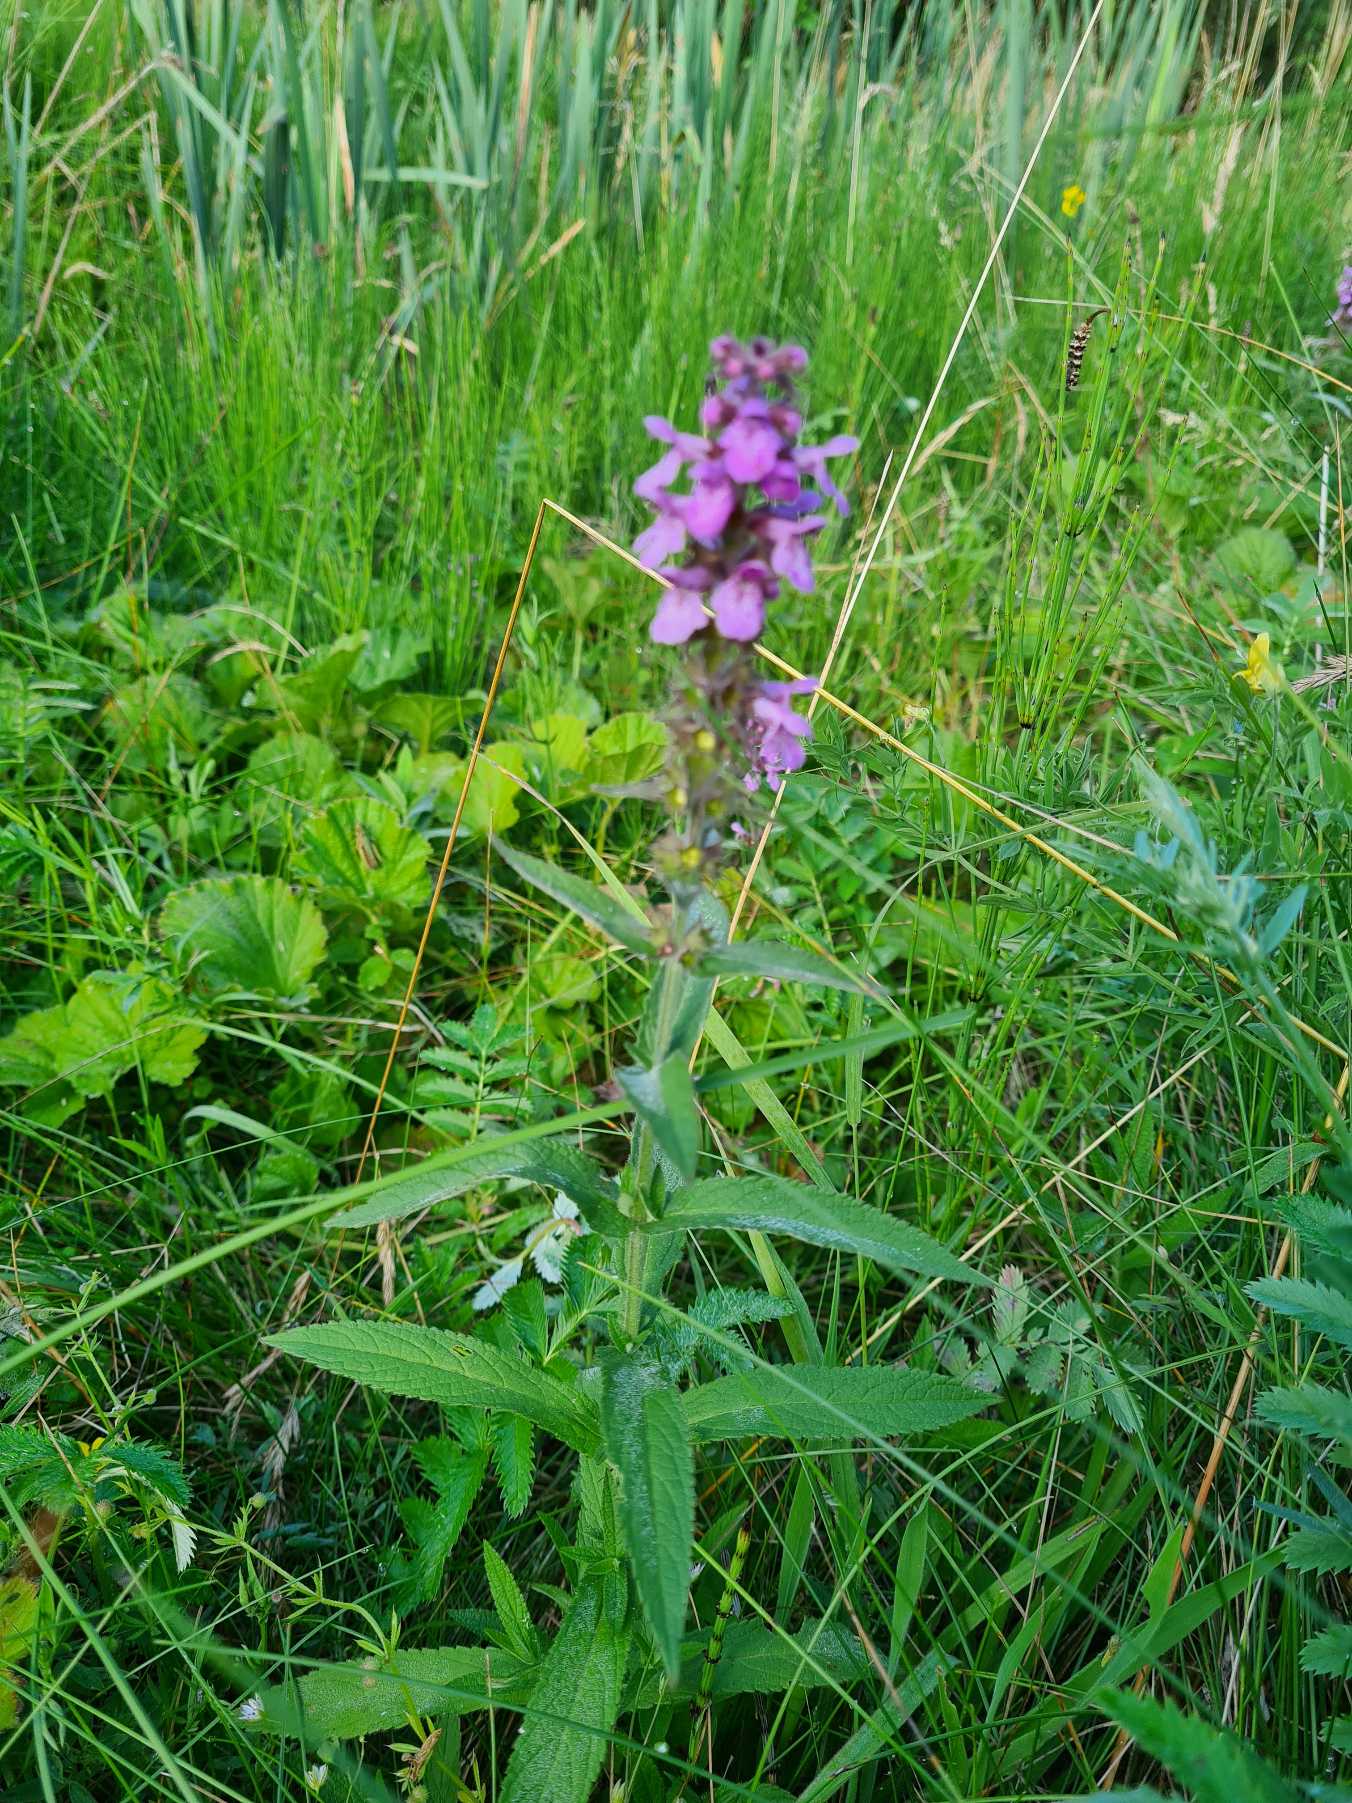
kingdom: Plantae
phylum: Tracheophyta
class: Magnoliopsida
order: Lamiales
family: Lamiaceae
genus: Stachys
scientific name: Stachys palustris
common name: Kær-galtetand
